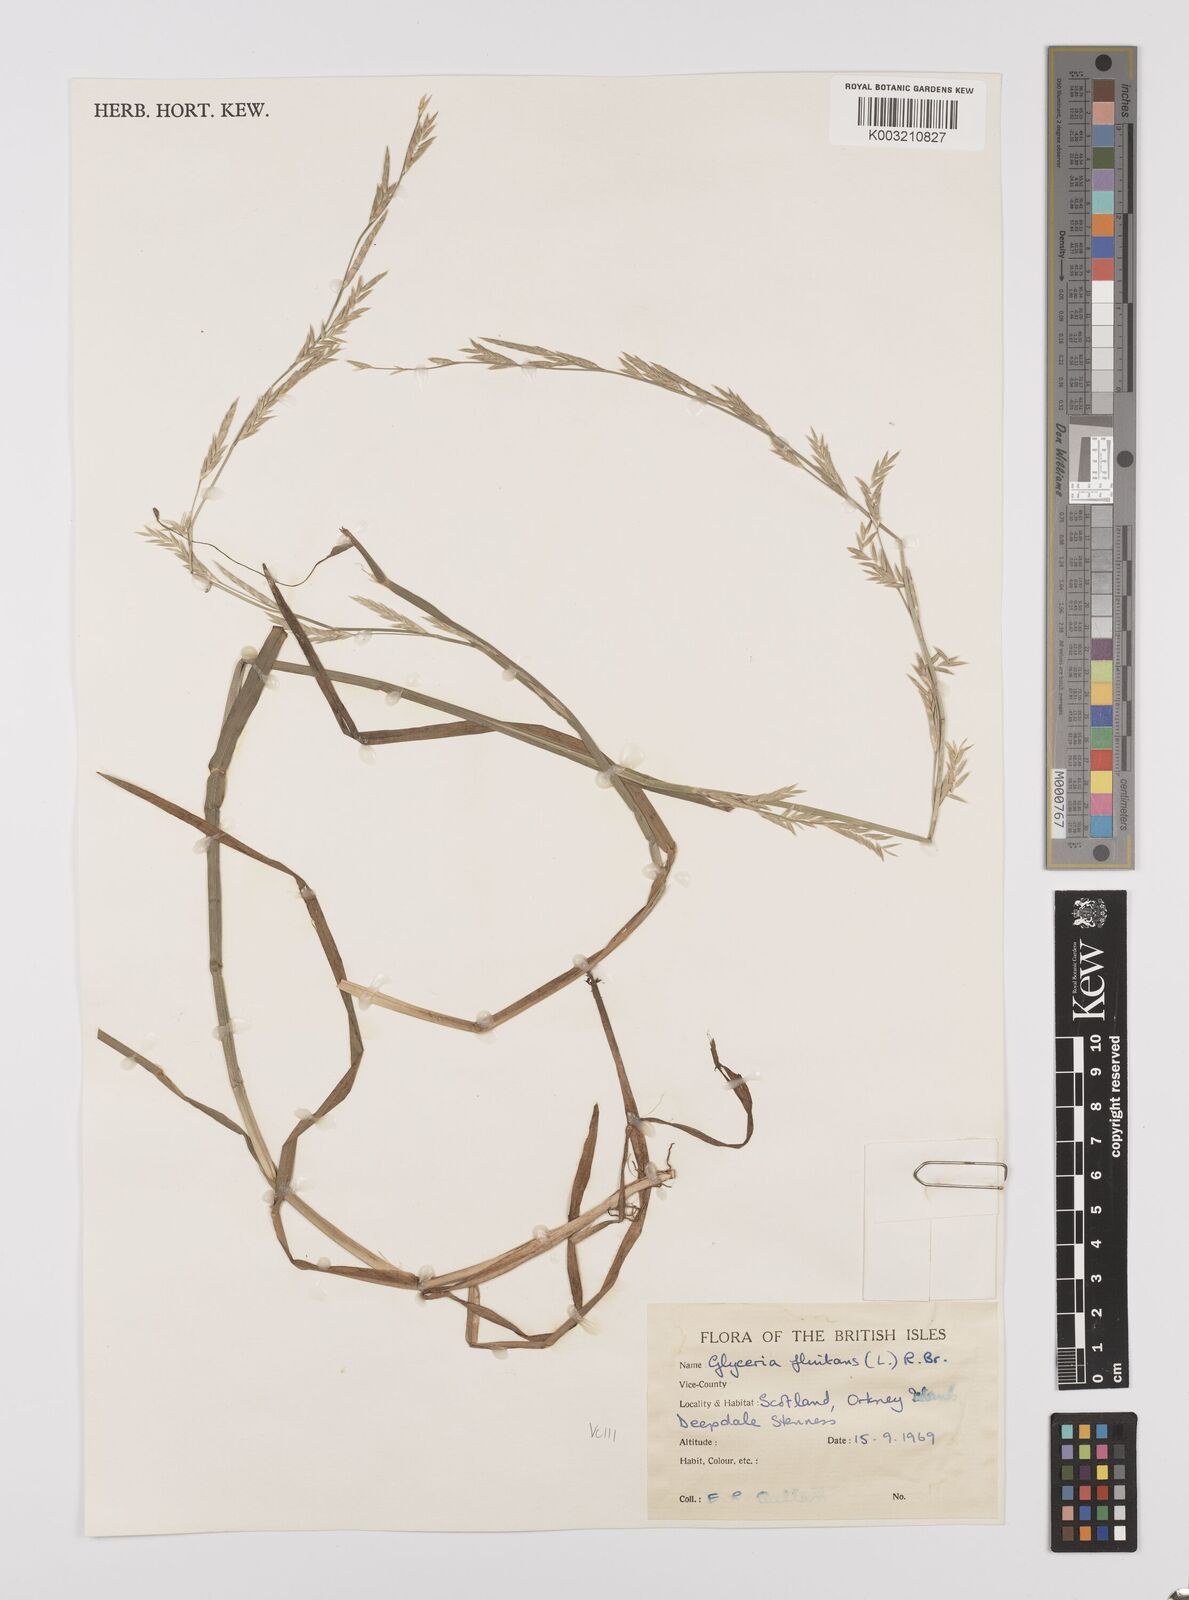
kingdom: Plantae
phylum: Tracheophyta
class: Liliopsida
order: Poales
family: Poaceae
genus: Glyceria
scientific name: Glyceria fluitans
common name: Floating sweet-grass
